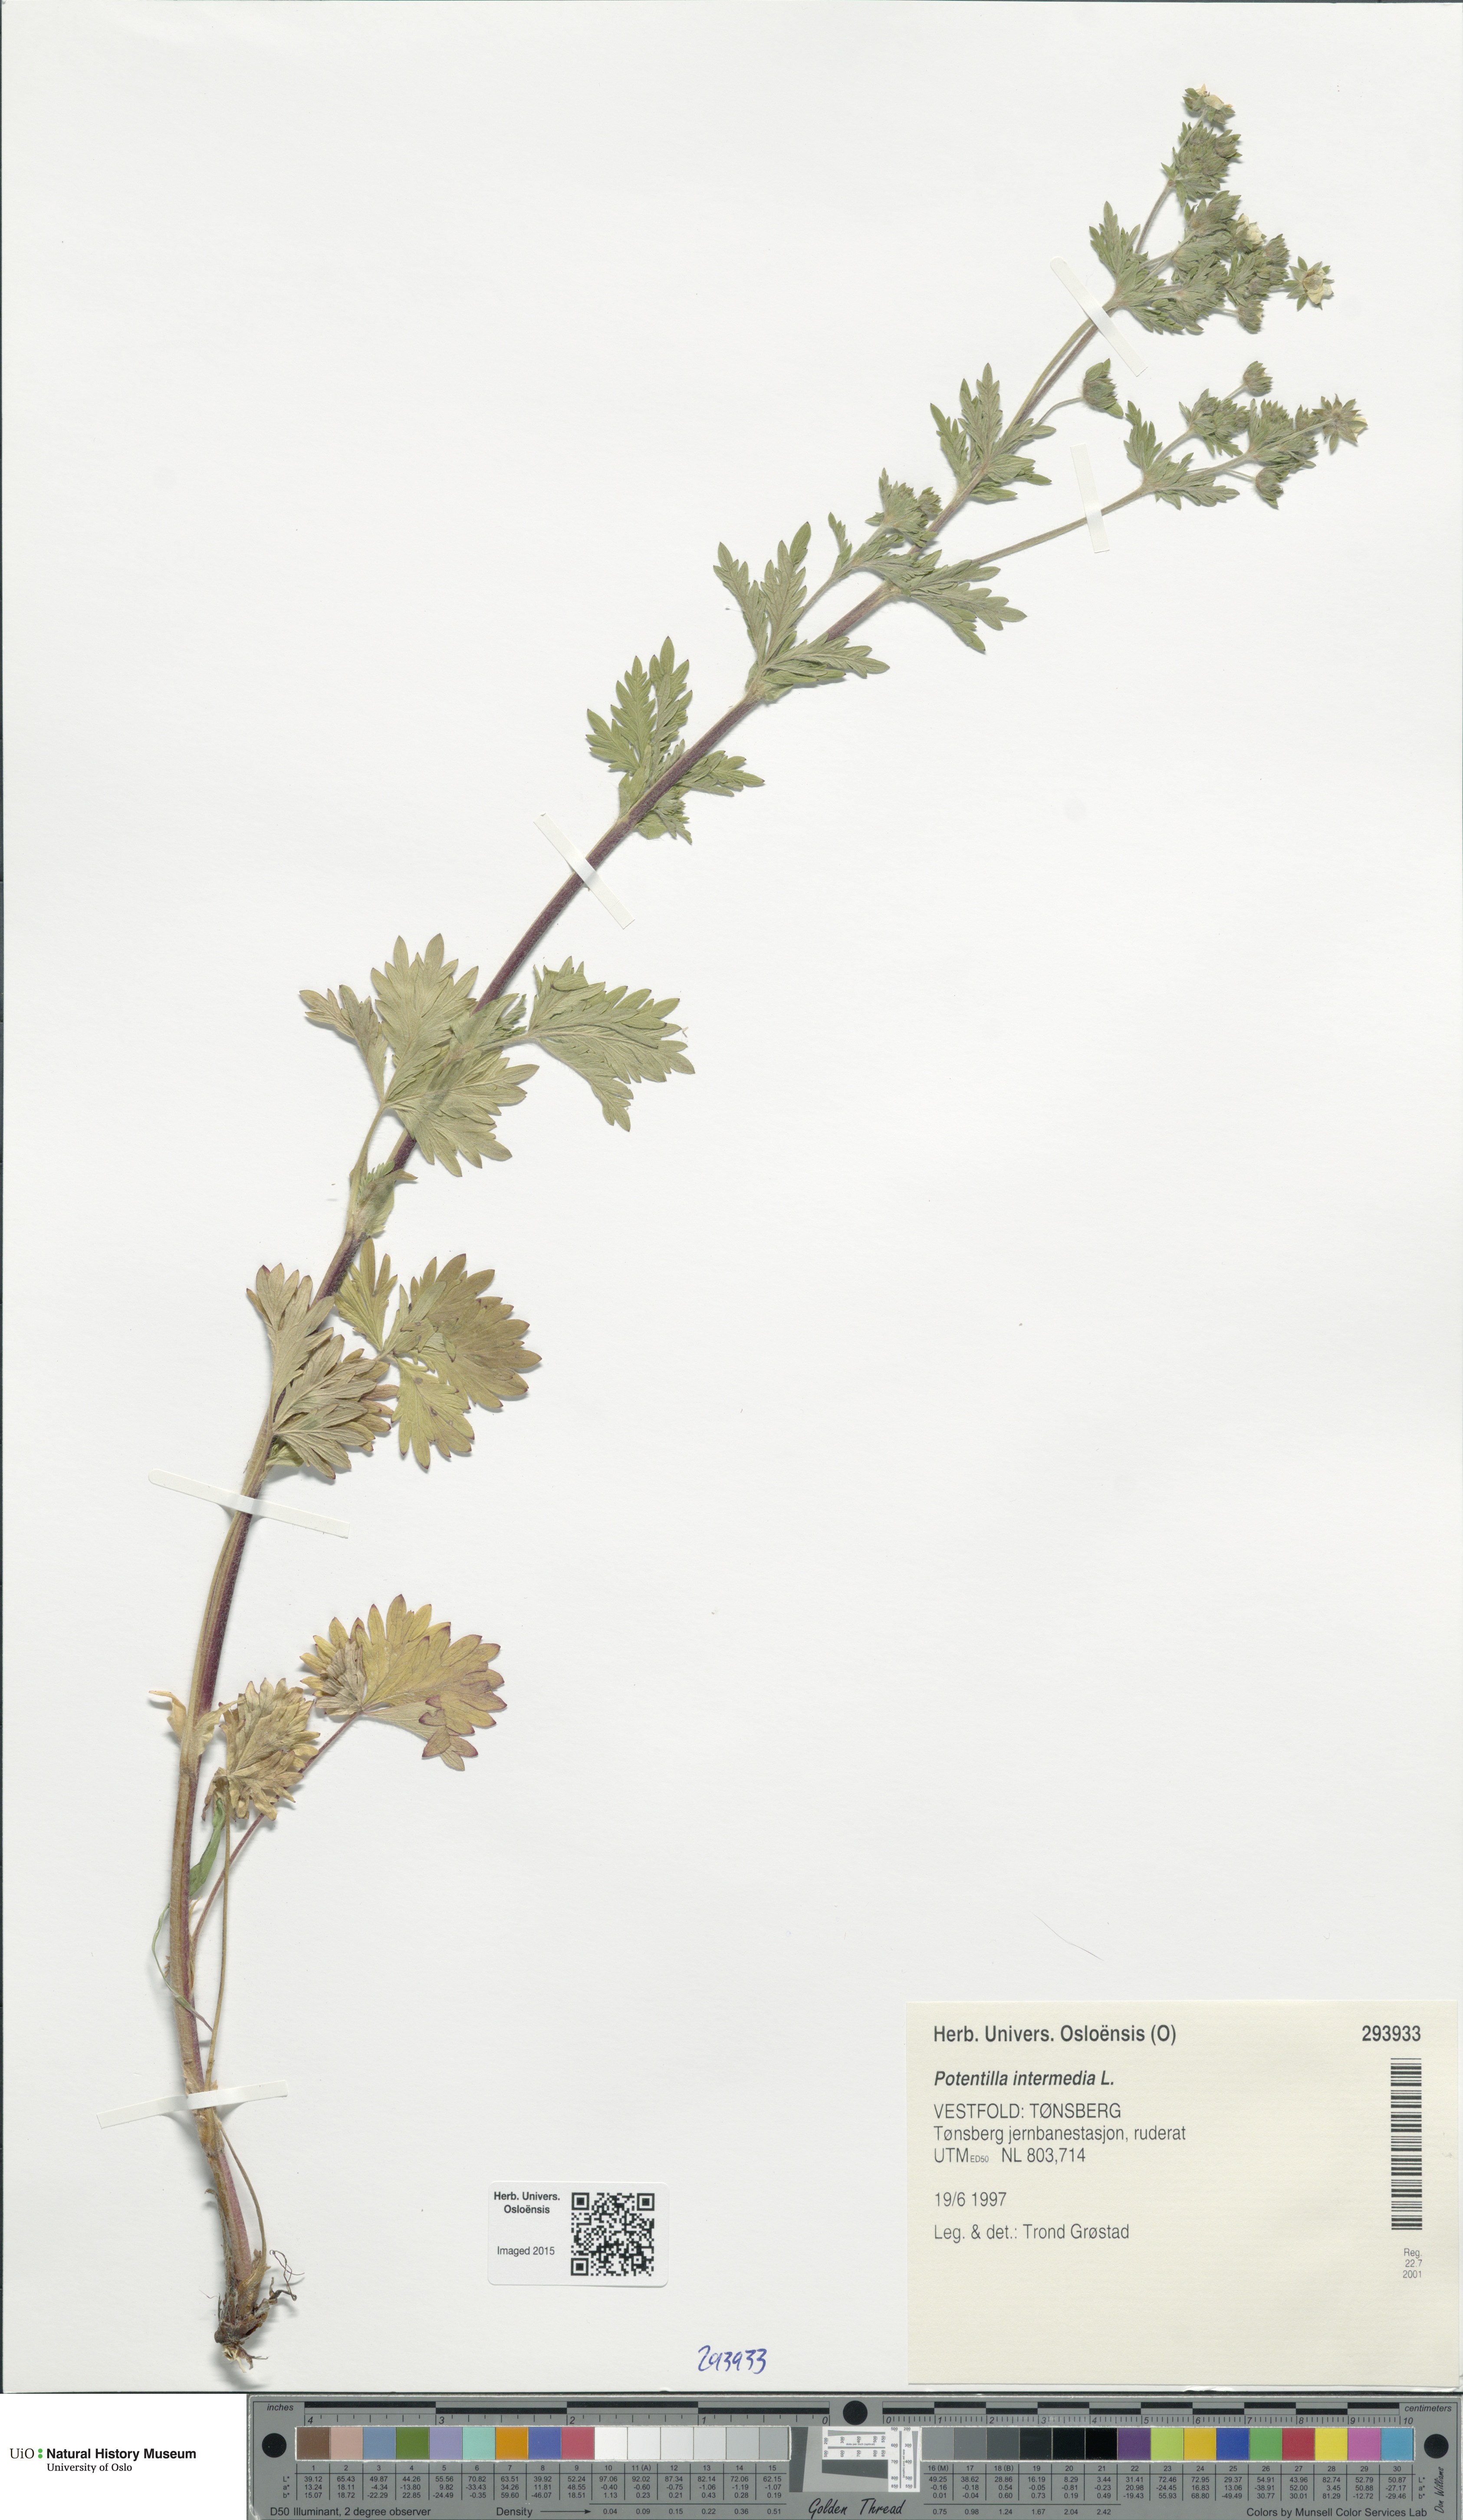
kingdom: Plantae
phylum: Tracheophyta
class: Magnoliopsida
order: Rosales
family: Rosaceae
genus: Potentilla
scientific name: Potentilla intermedia
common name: Downy cinquefoil
